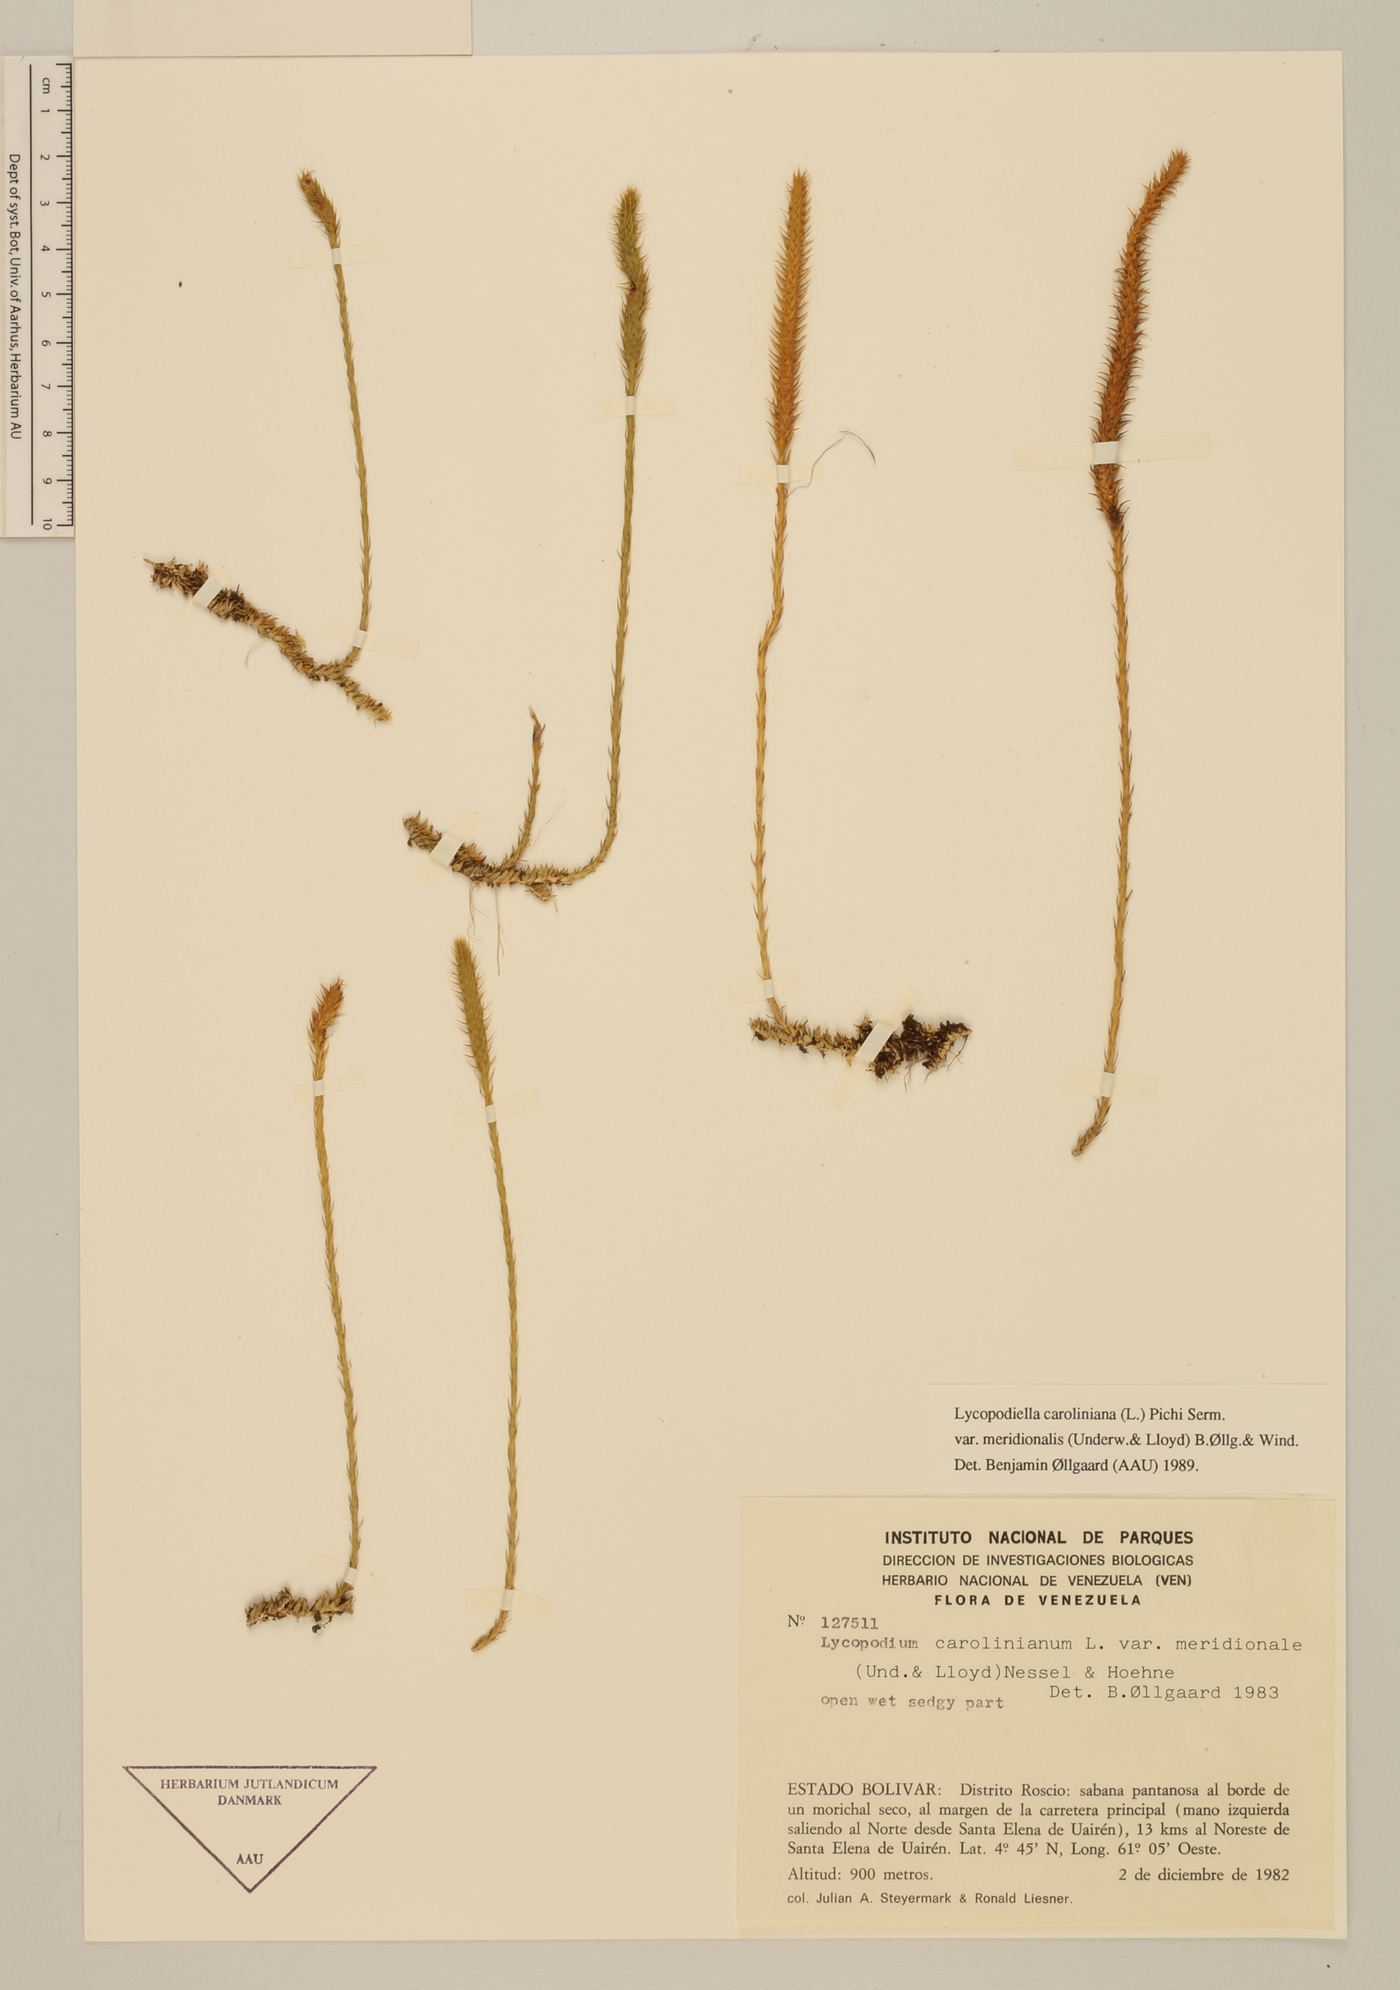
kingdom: Plantae
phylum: Tracheophyta
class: Lycopodiopsida
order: Lycopodiales
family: Lycopodiaceae
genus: Pseudolycopodiella
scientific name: Pseudolycopodiella meridionalis
